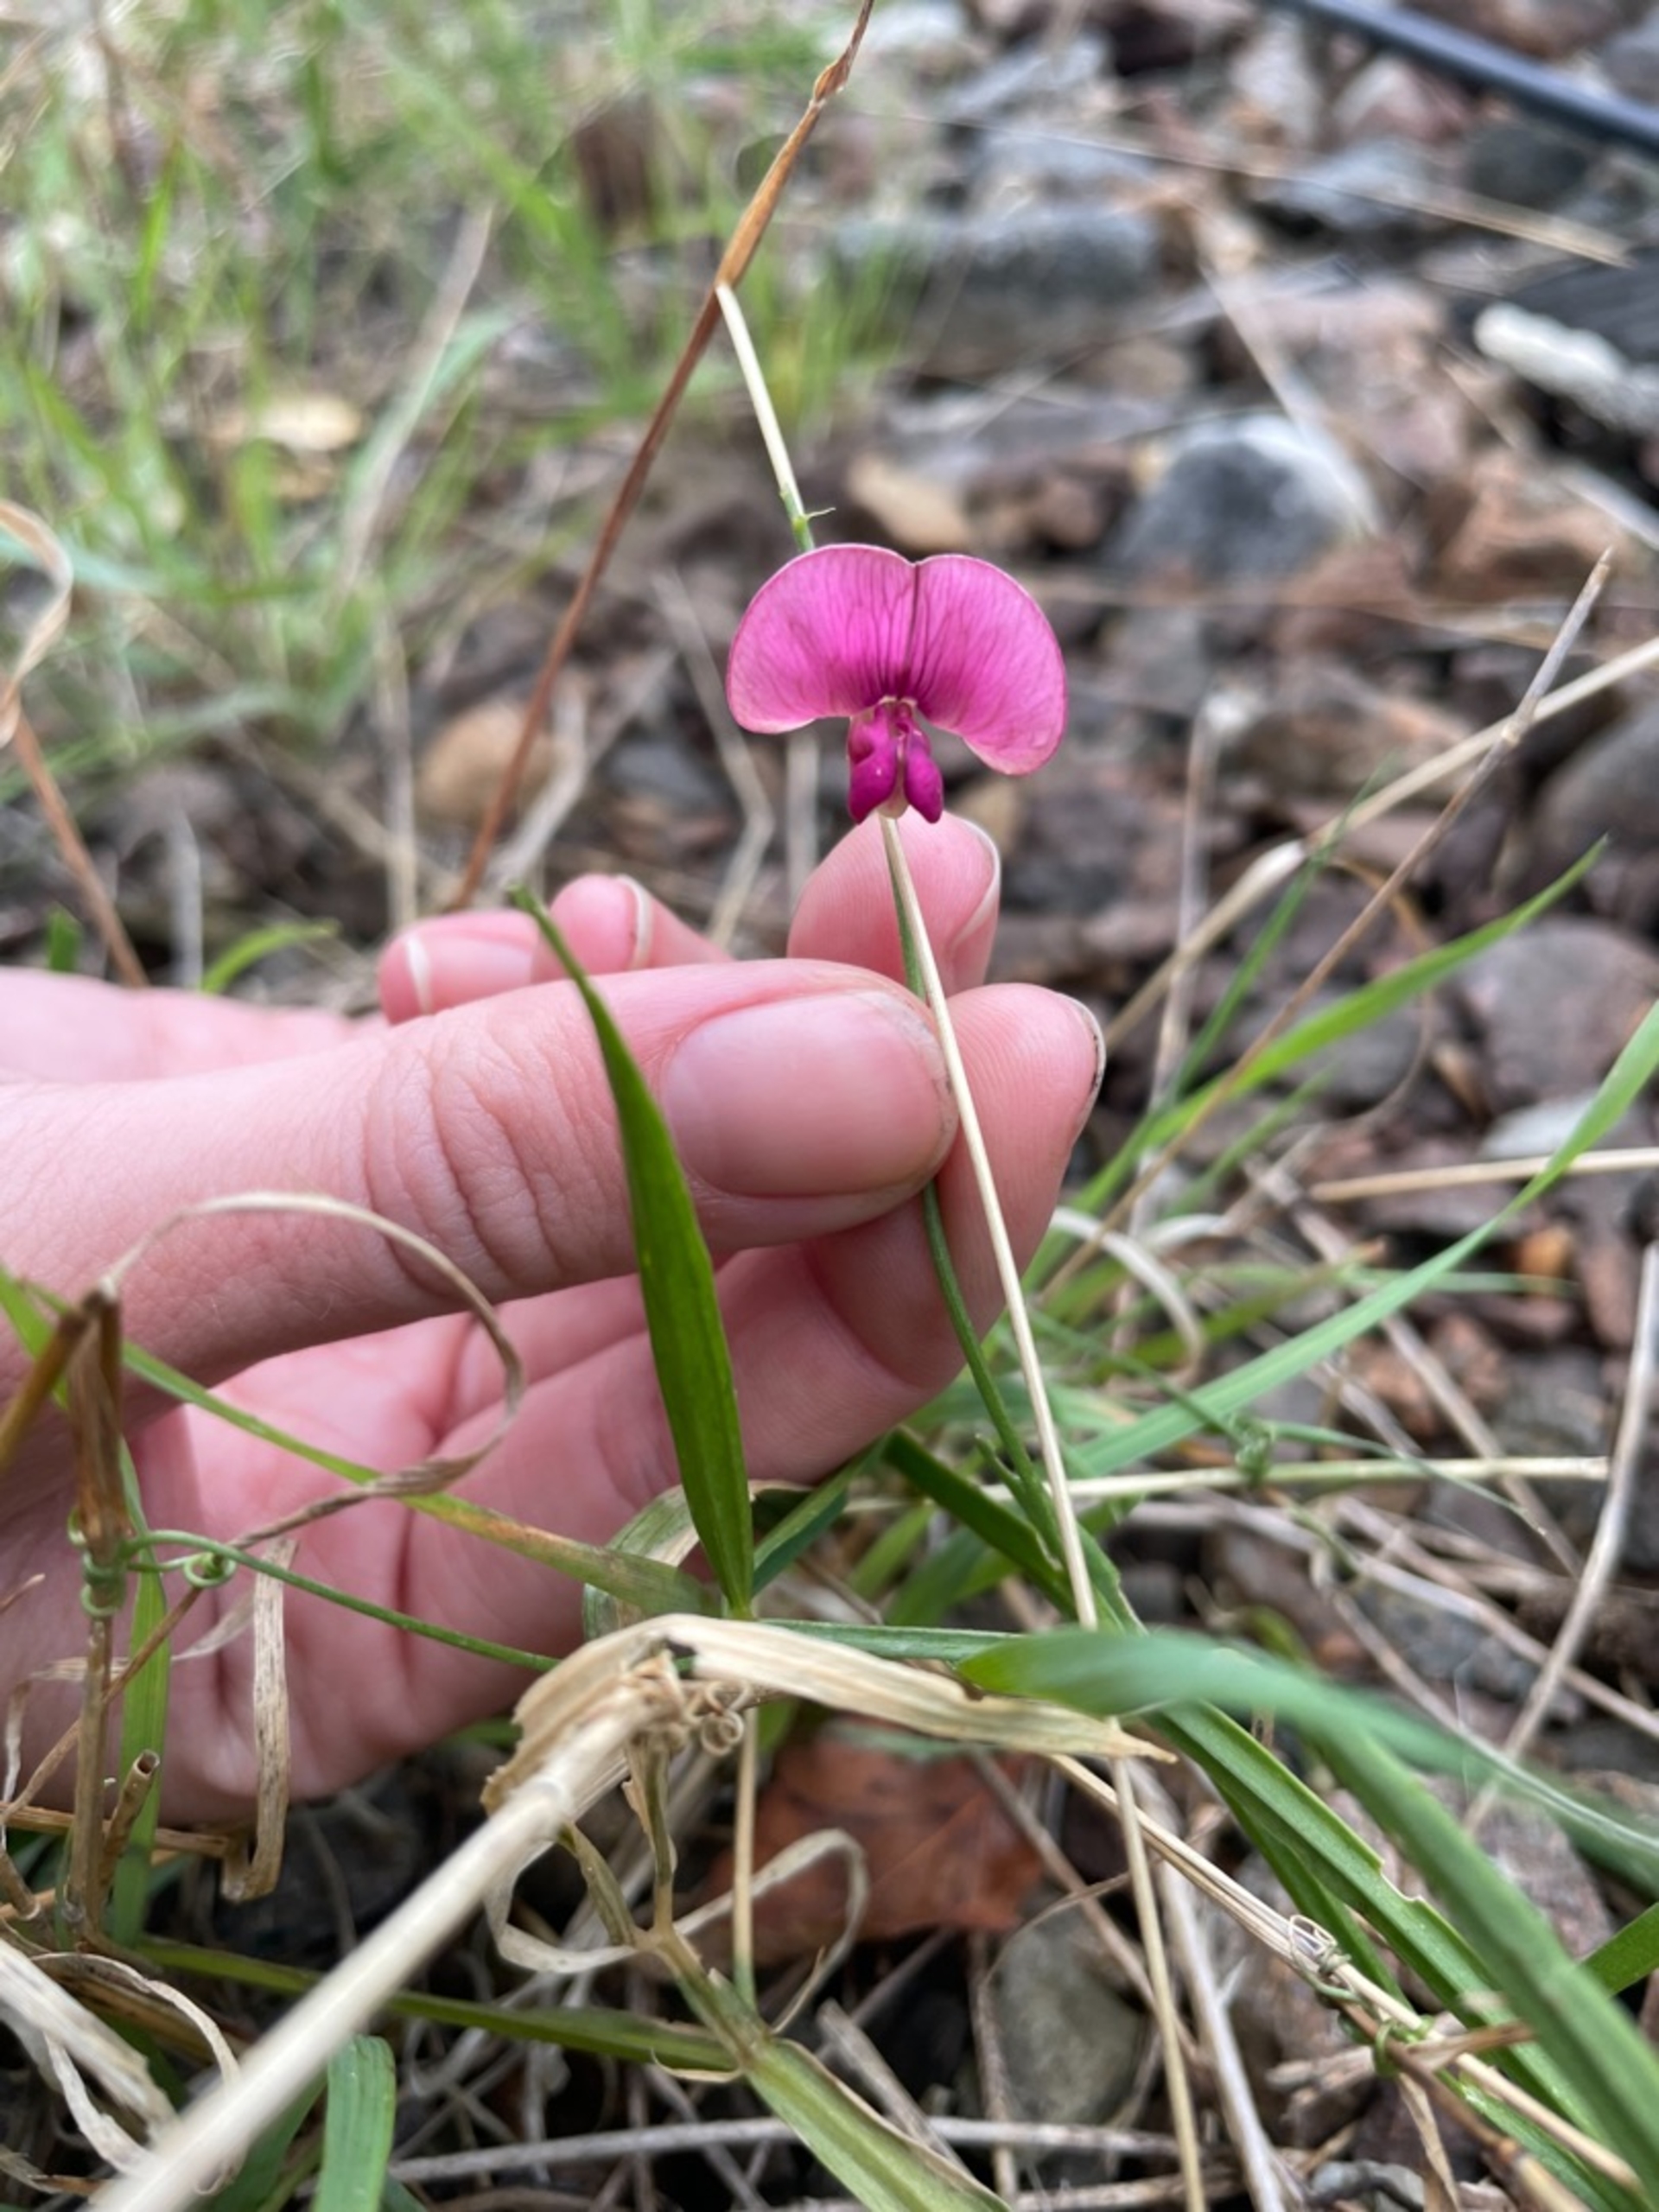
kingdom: Plantae
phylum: Tracheophyta
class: Magnoliopsida
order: Fabales
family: Fabaceae
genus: Lathyrus
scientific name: Lathyrus sylvestris
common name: Skov-fladbælg
